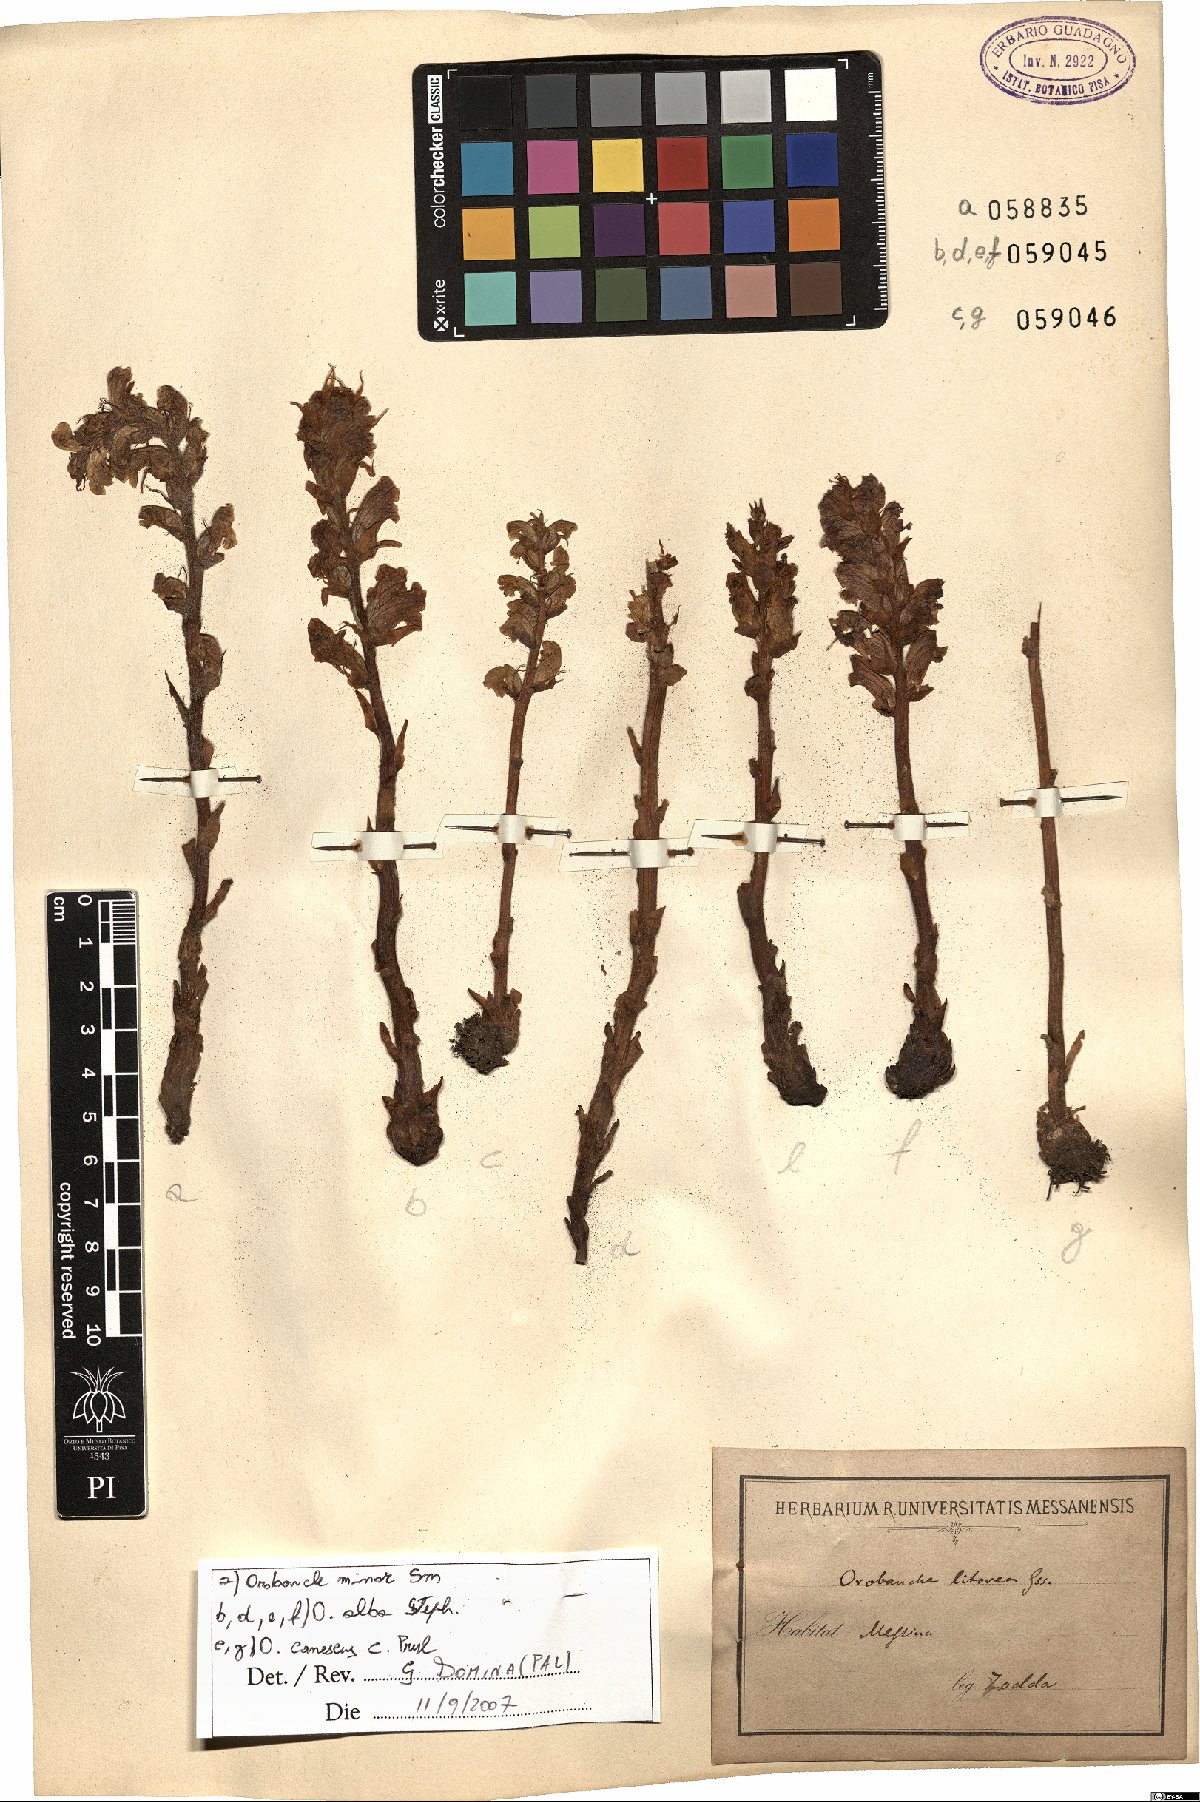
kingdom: Plantae
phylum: Tracheophyta
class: Magnoliopsida
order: Lamiales
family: Orobanchaceae
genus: Orobanche
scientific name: Orobanche alba
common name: Thyme broomrape
